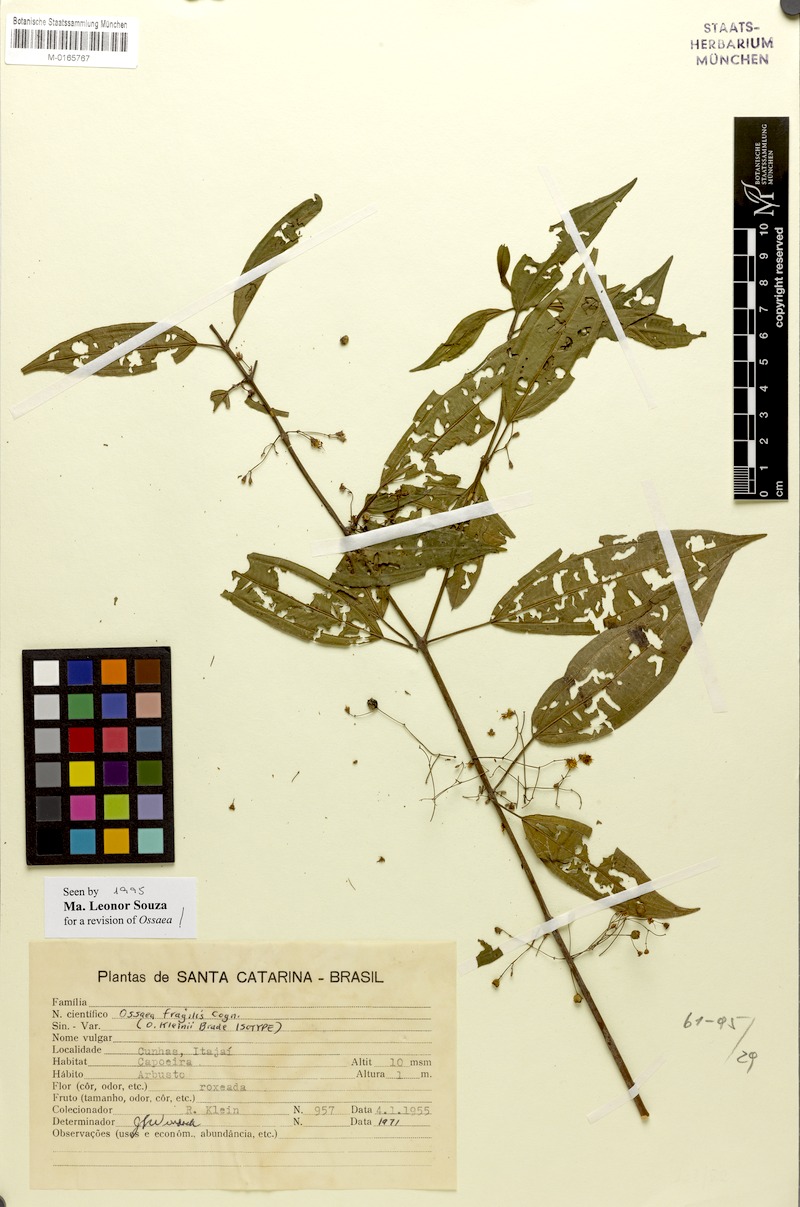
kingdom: Plantae
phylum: Tracheophyta
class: Magnoliopsida
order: Myrtales
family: Melastomataceae
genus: Miconia
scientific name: Miconia leafragilis
